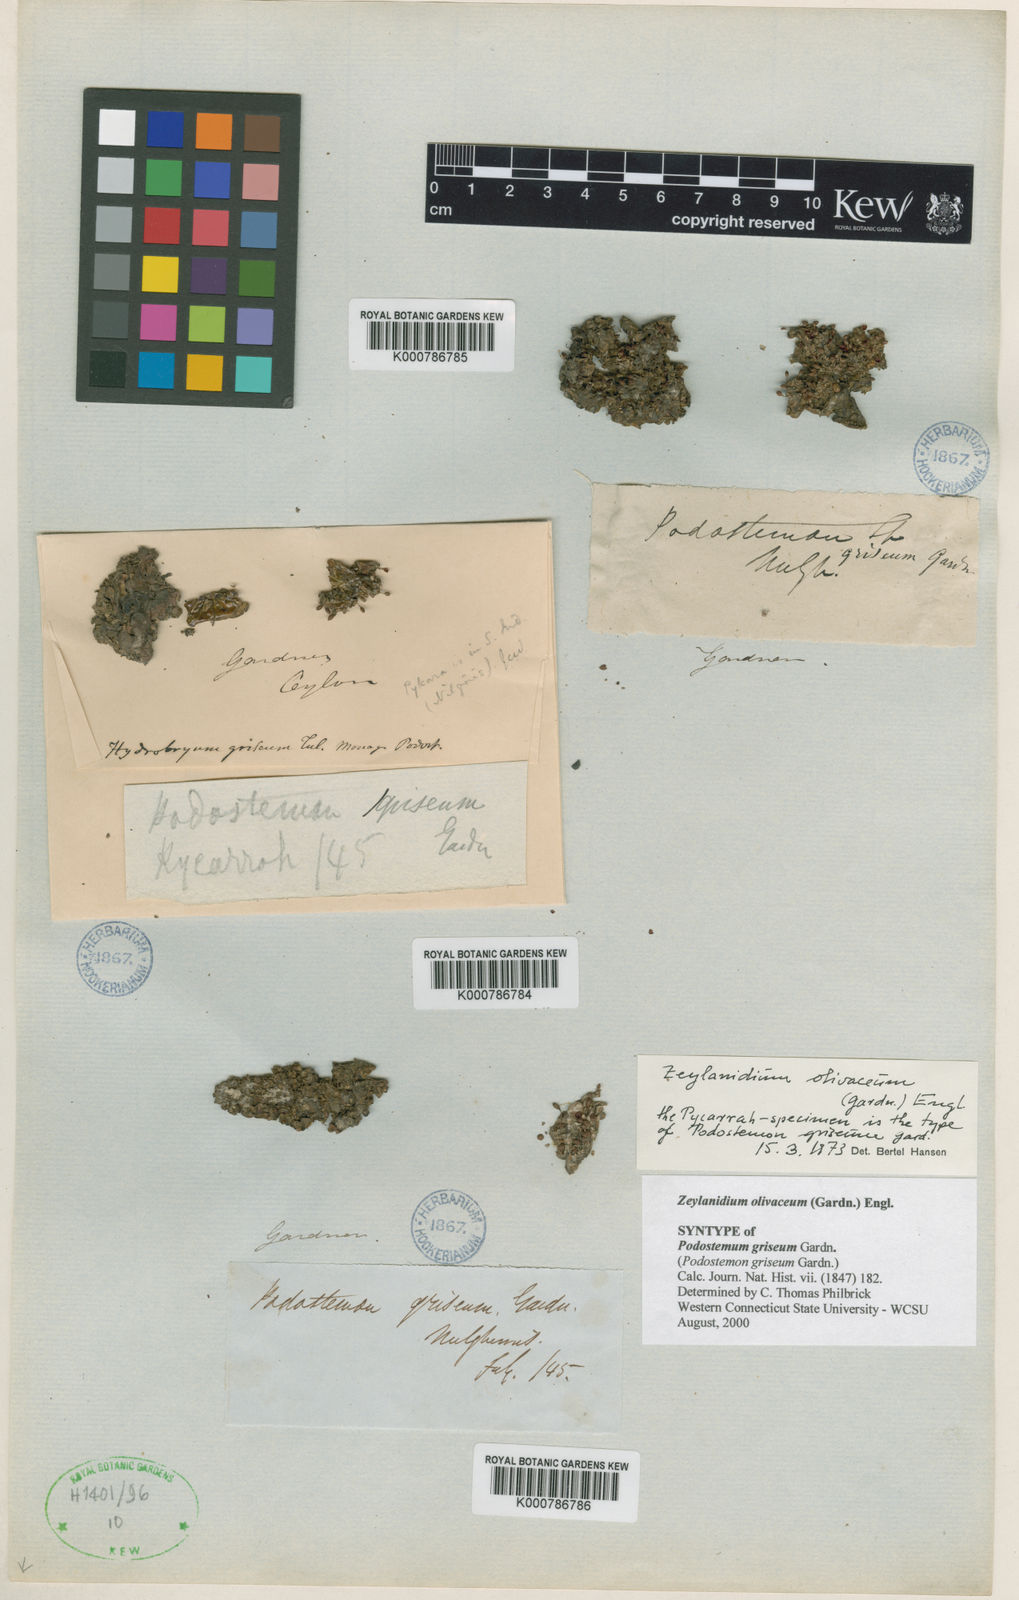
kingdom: Plantae
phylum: Tracheophyta
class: Magnoliopsida
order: Malpighiales
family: Podostemaceae
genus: Zeylanidium
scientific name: Zeylanidium olivaceum
